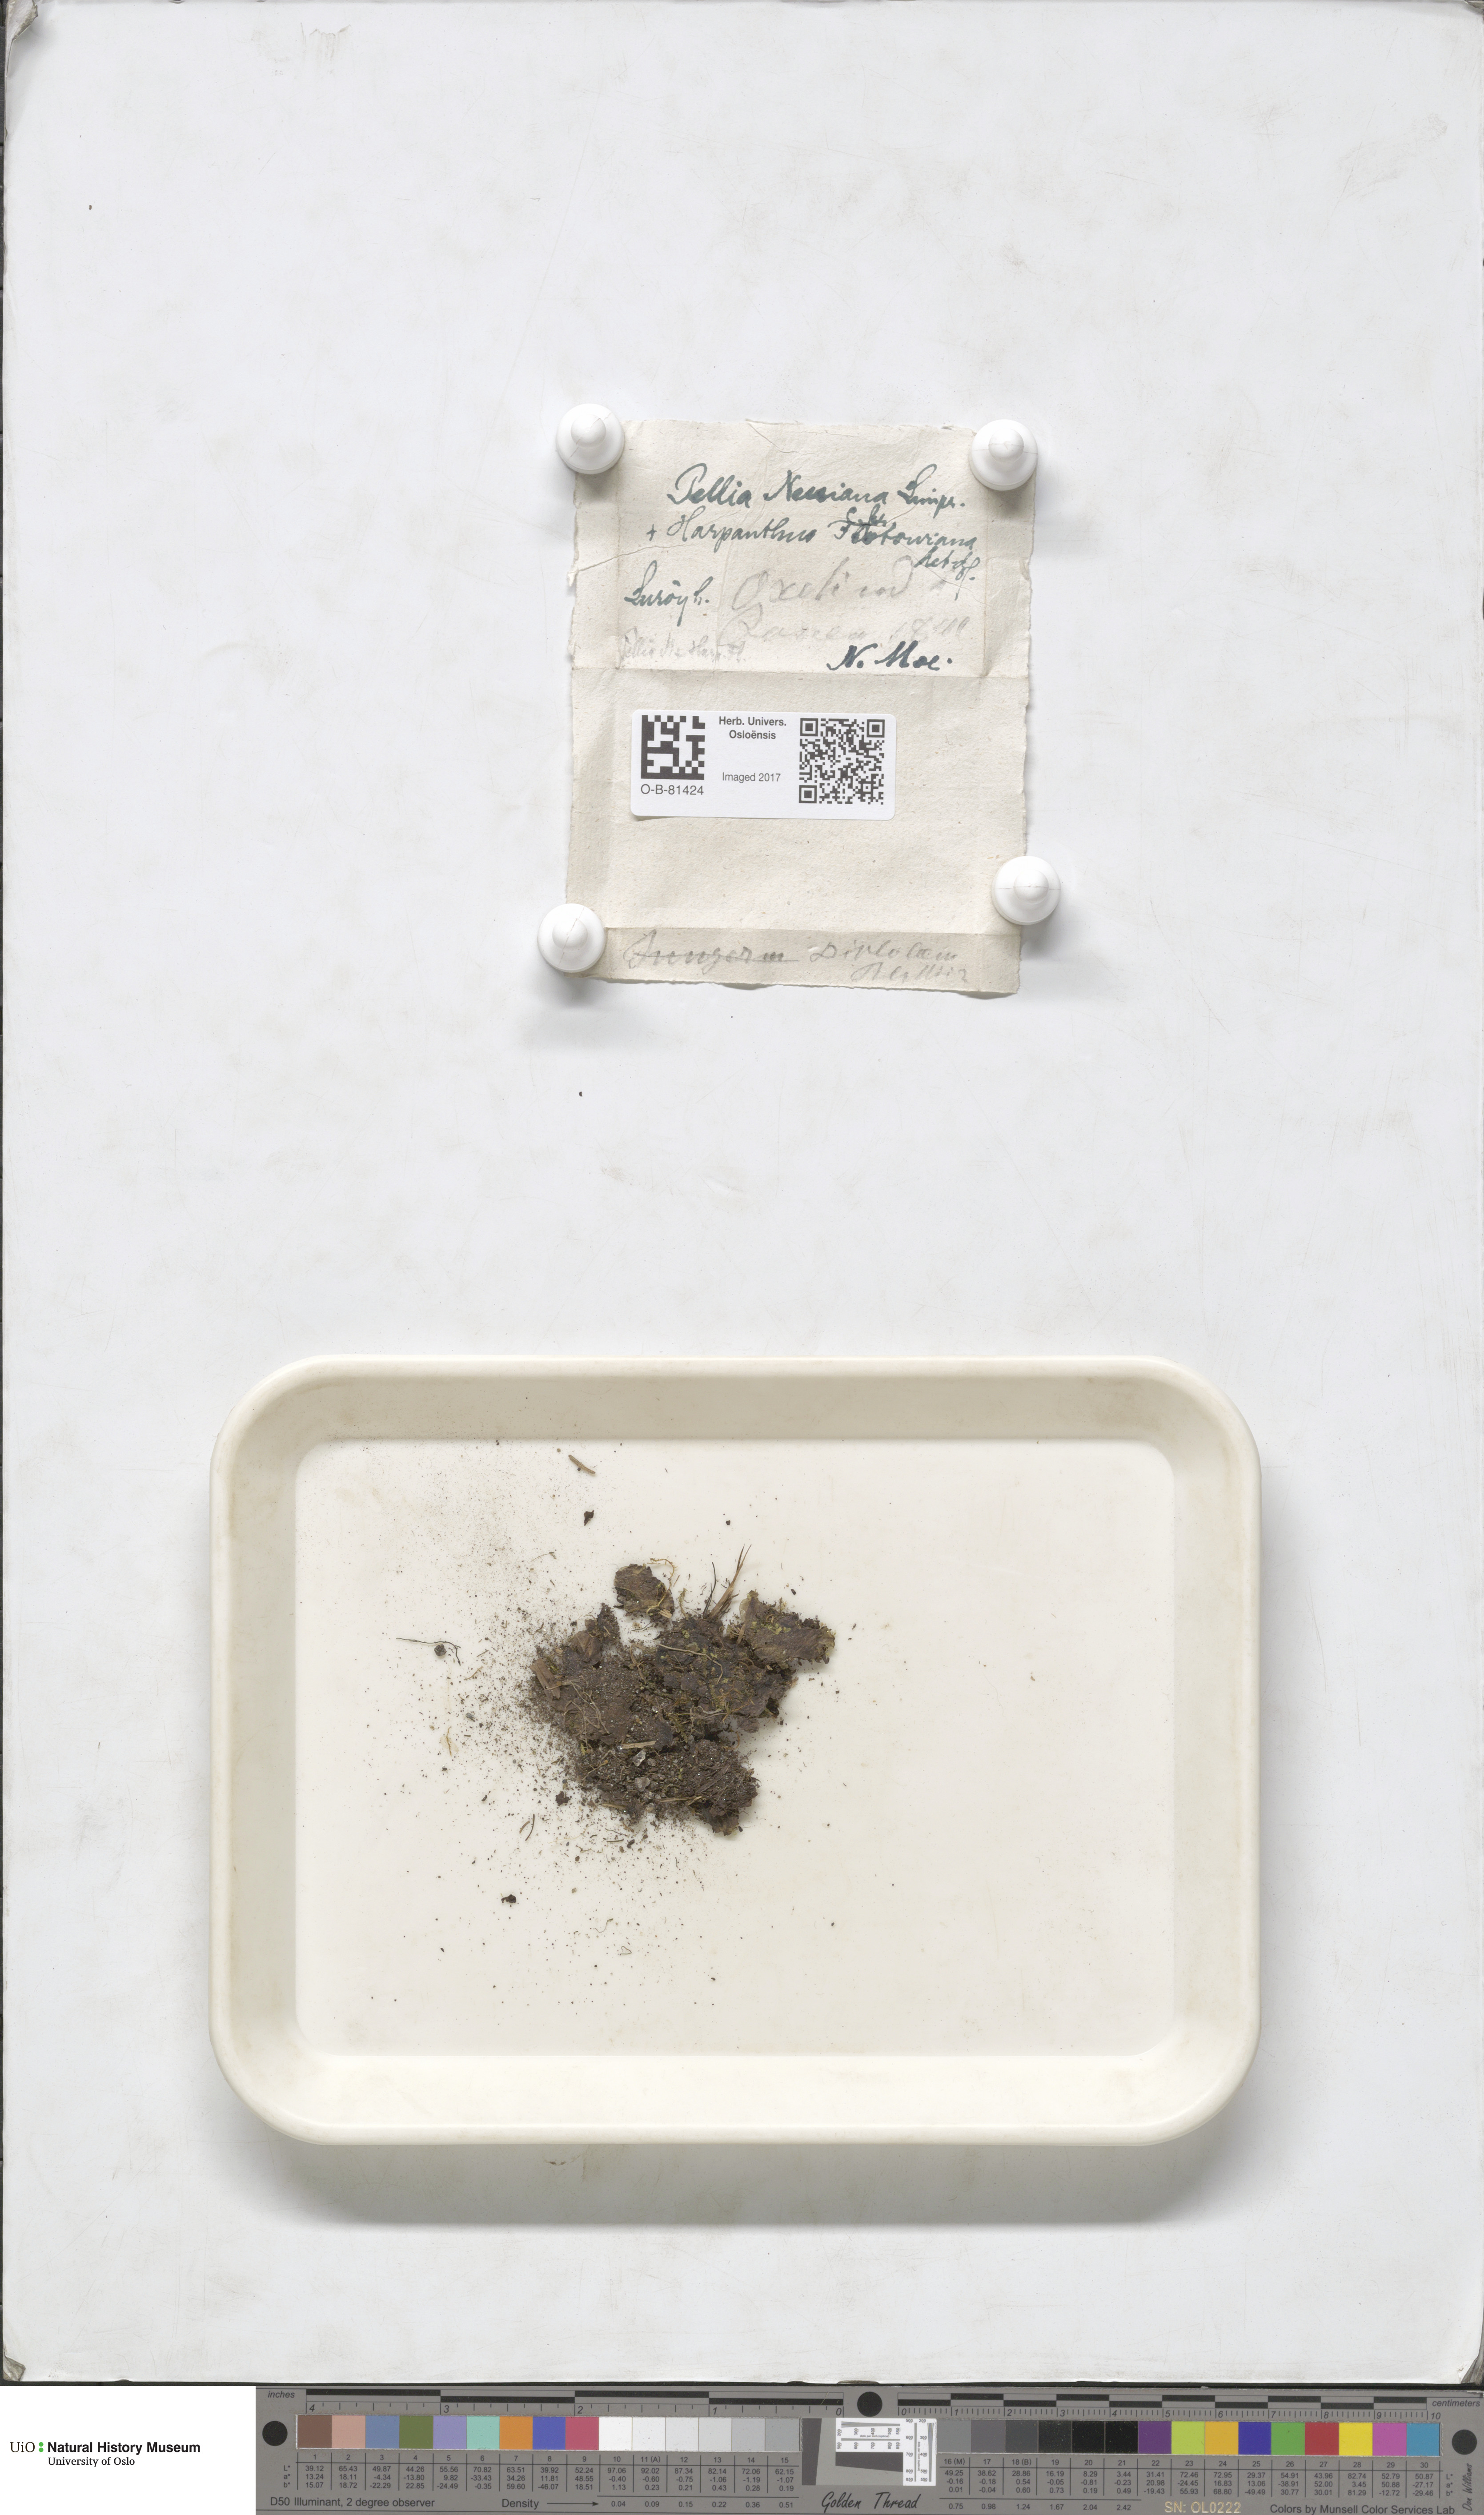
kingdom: Plantae
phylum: Marchantiophyta
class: Jungermanniopsida
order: Pelliales
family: Pelliaceae
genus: Pellia
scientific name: Pellia neesiana
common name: Nees  pellia
